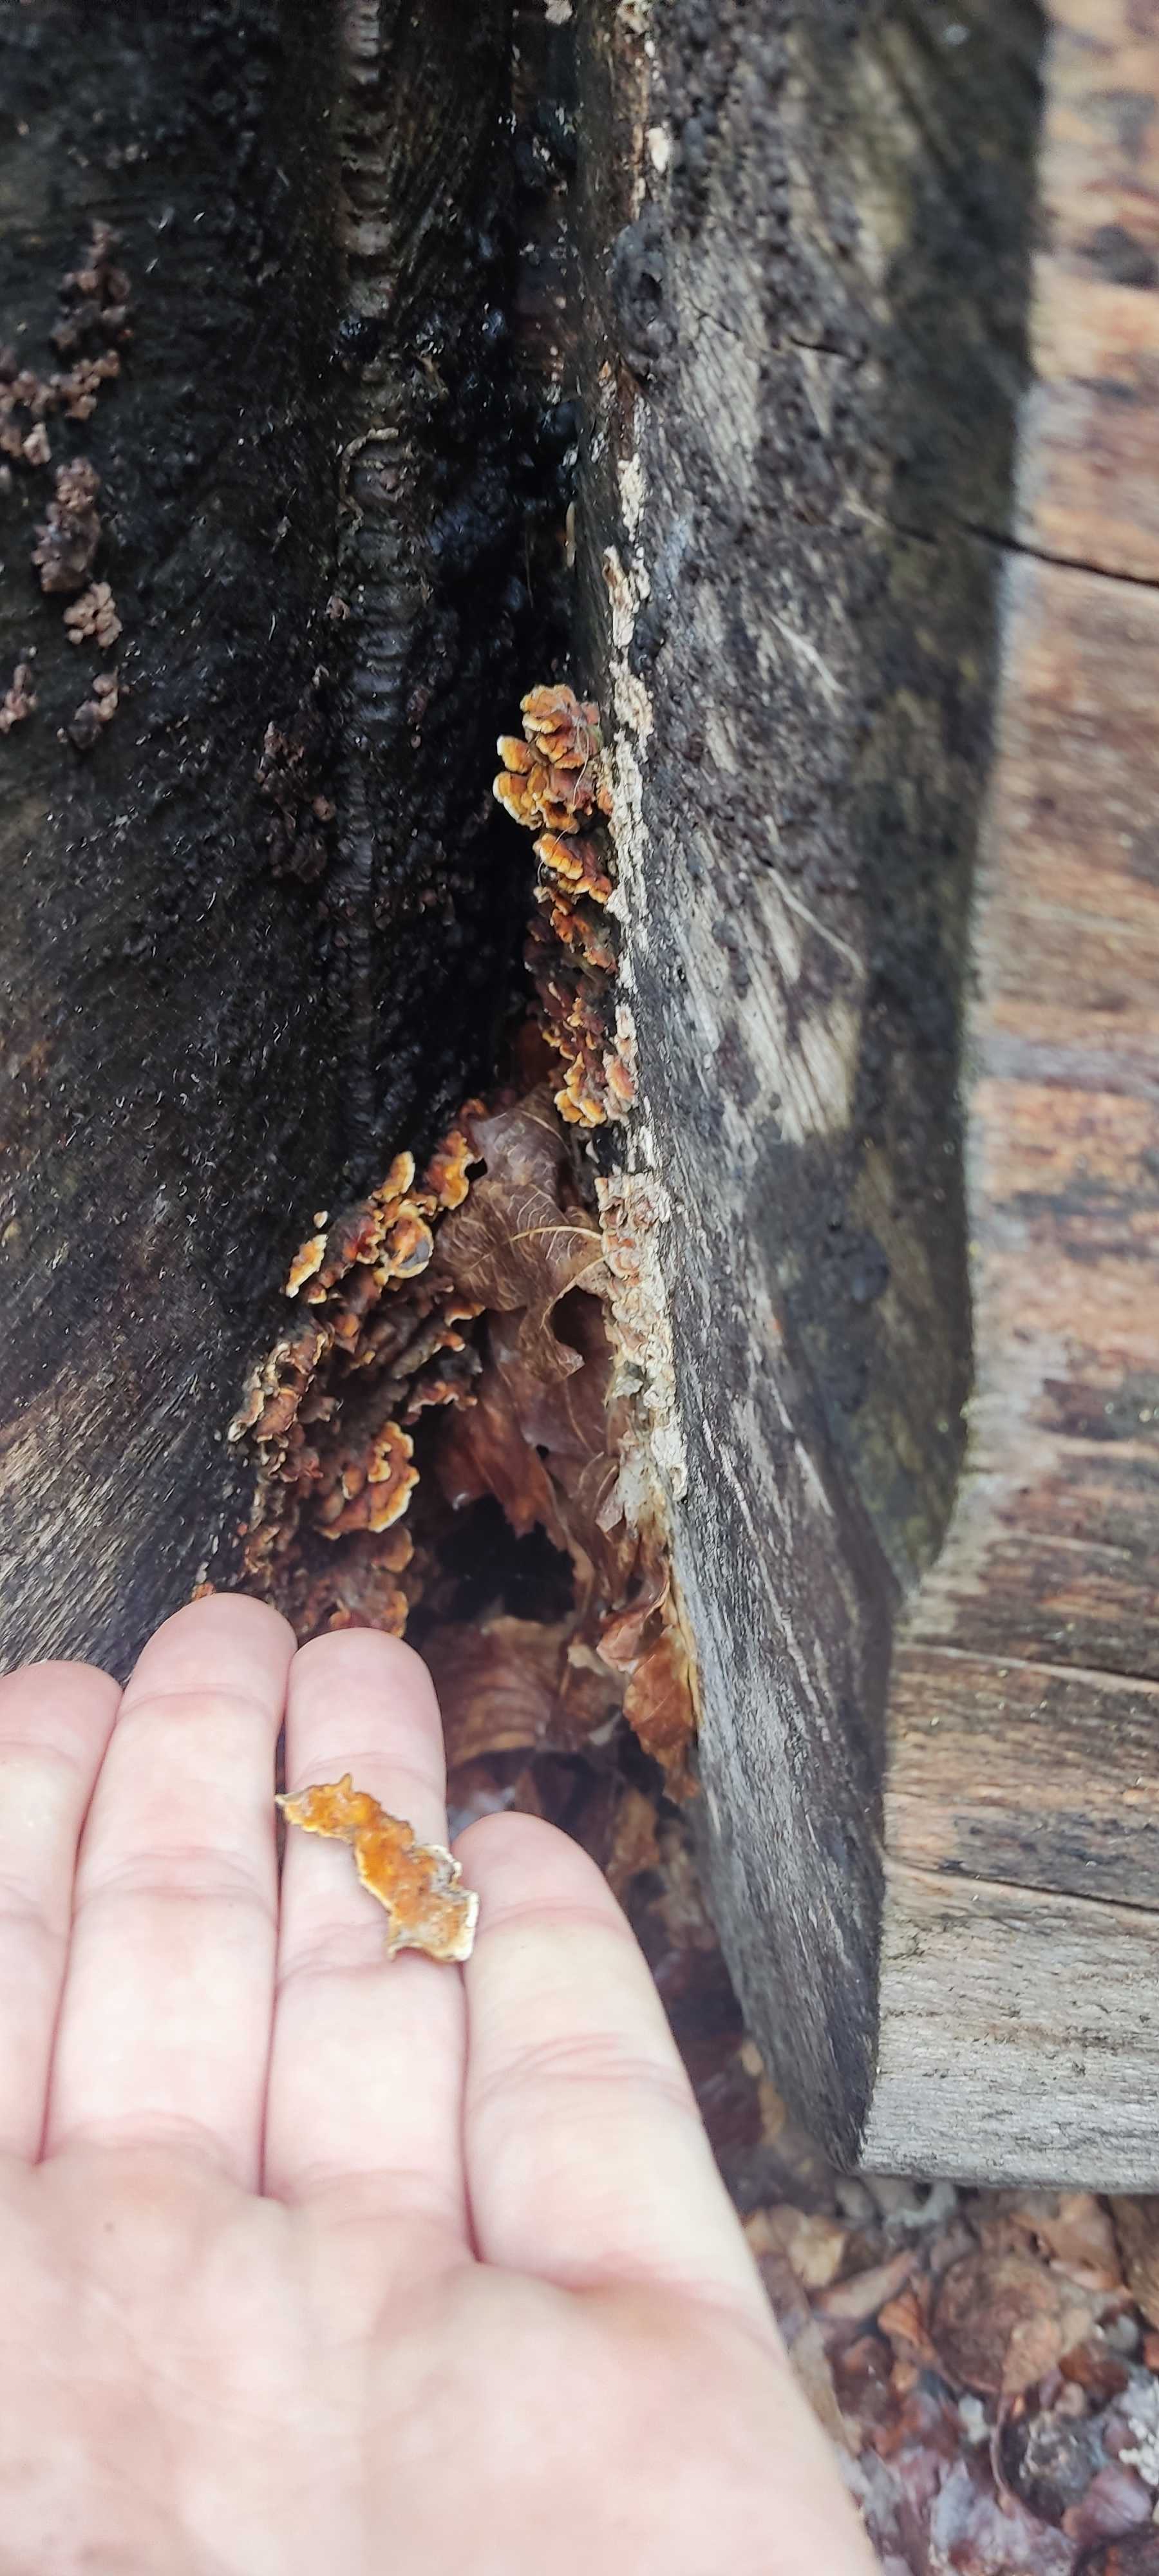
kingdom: Fungi
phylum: Basidiomycota
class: Agaricomycetes
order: Polyporales
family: Polyporaceae
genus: Trametes
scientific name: Trametes versicolor
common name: broget læderporesvamp
